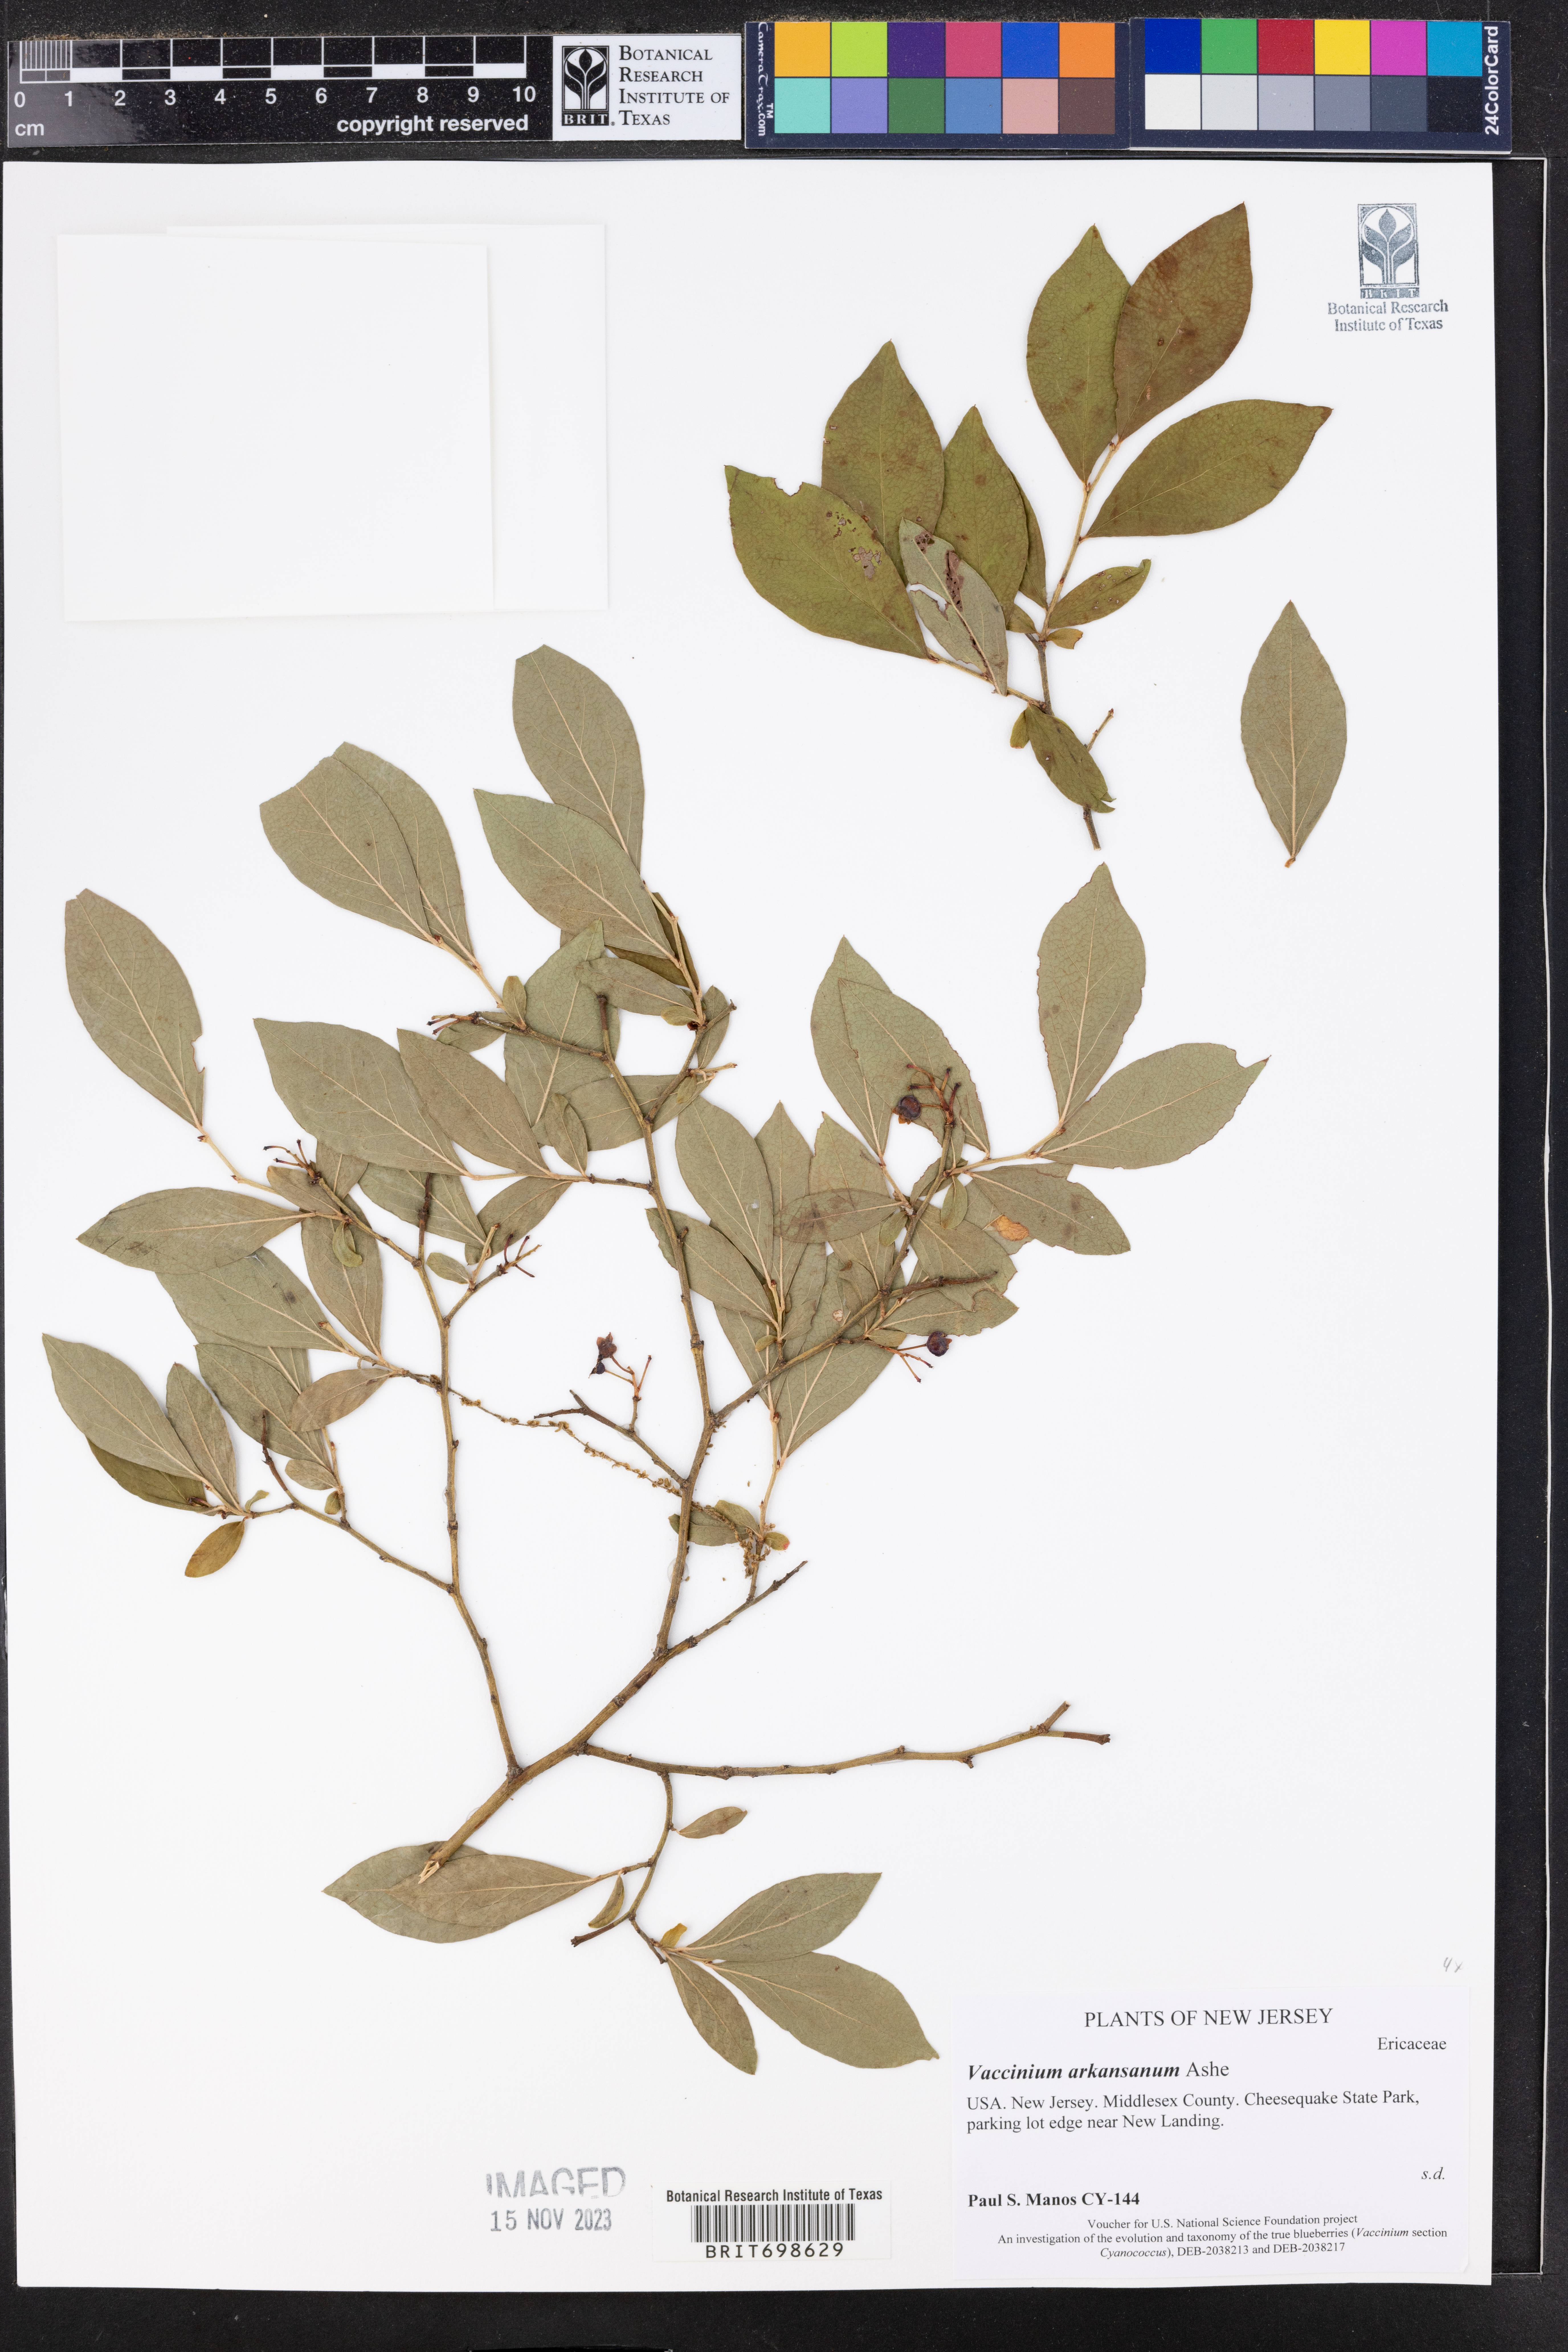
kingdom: Plantae
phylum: Tracheophyta
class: Magnoliopsida
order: Ericales
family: Ericaceae
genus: Vaccinium
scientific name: Vaccinium corymbosum
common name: Blueberry
